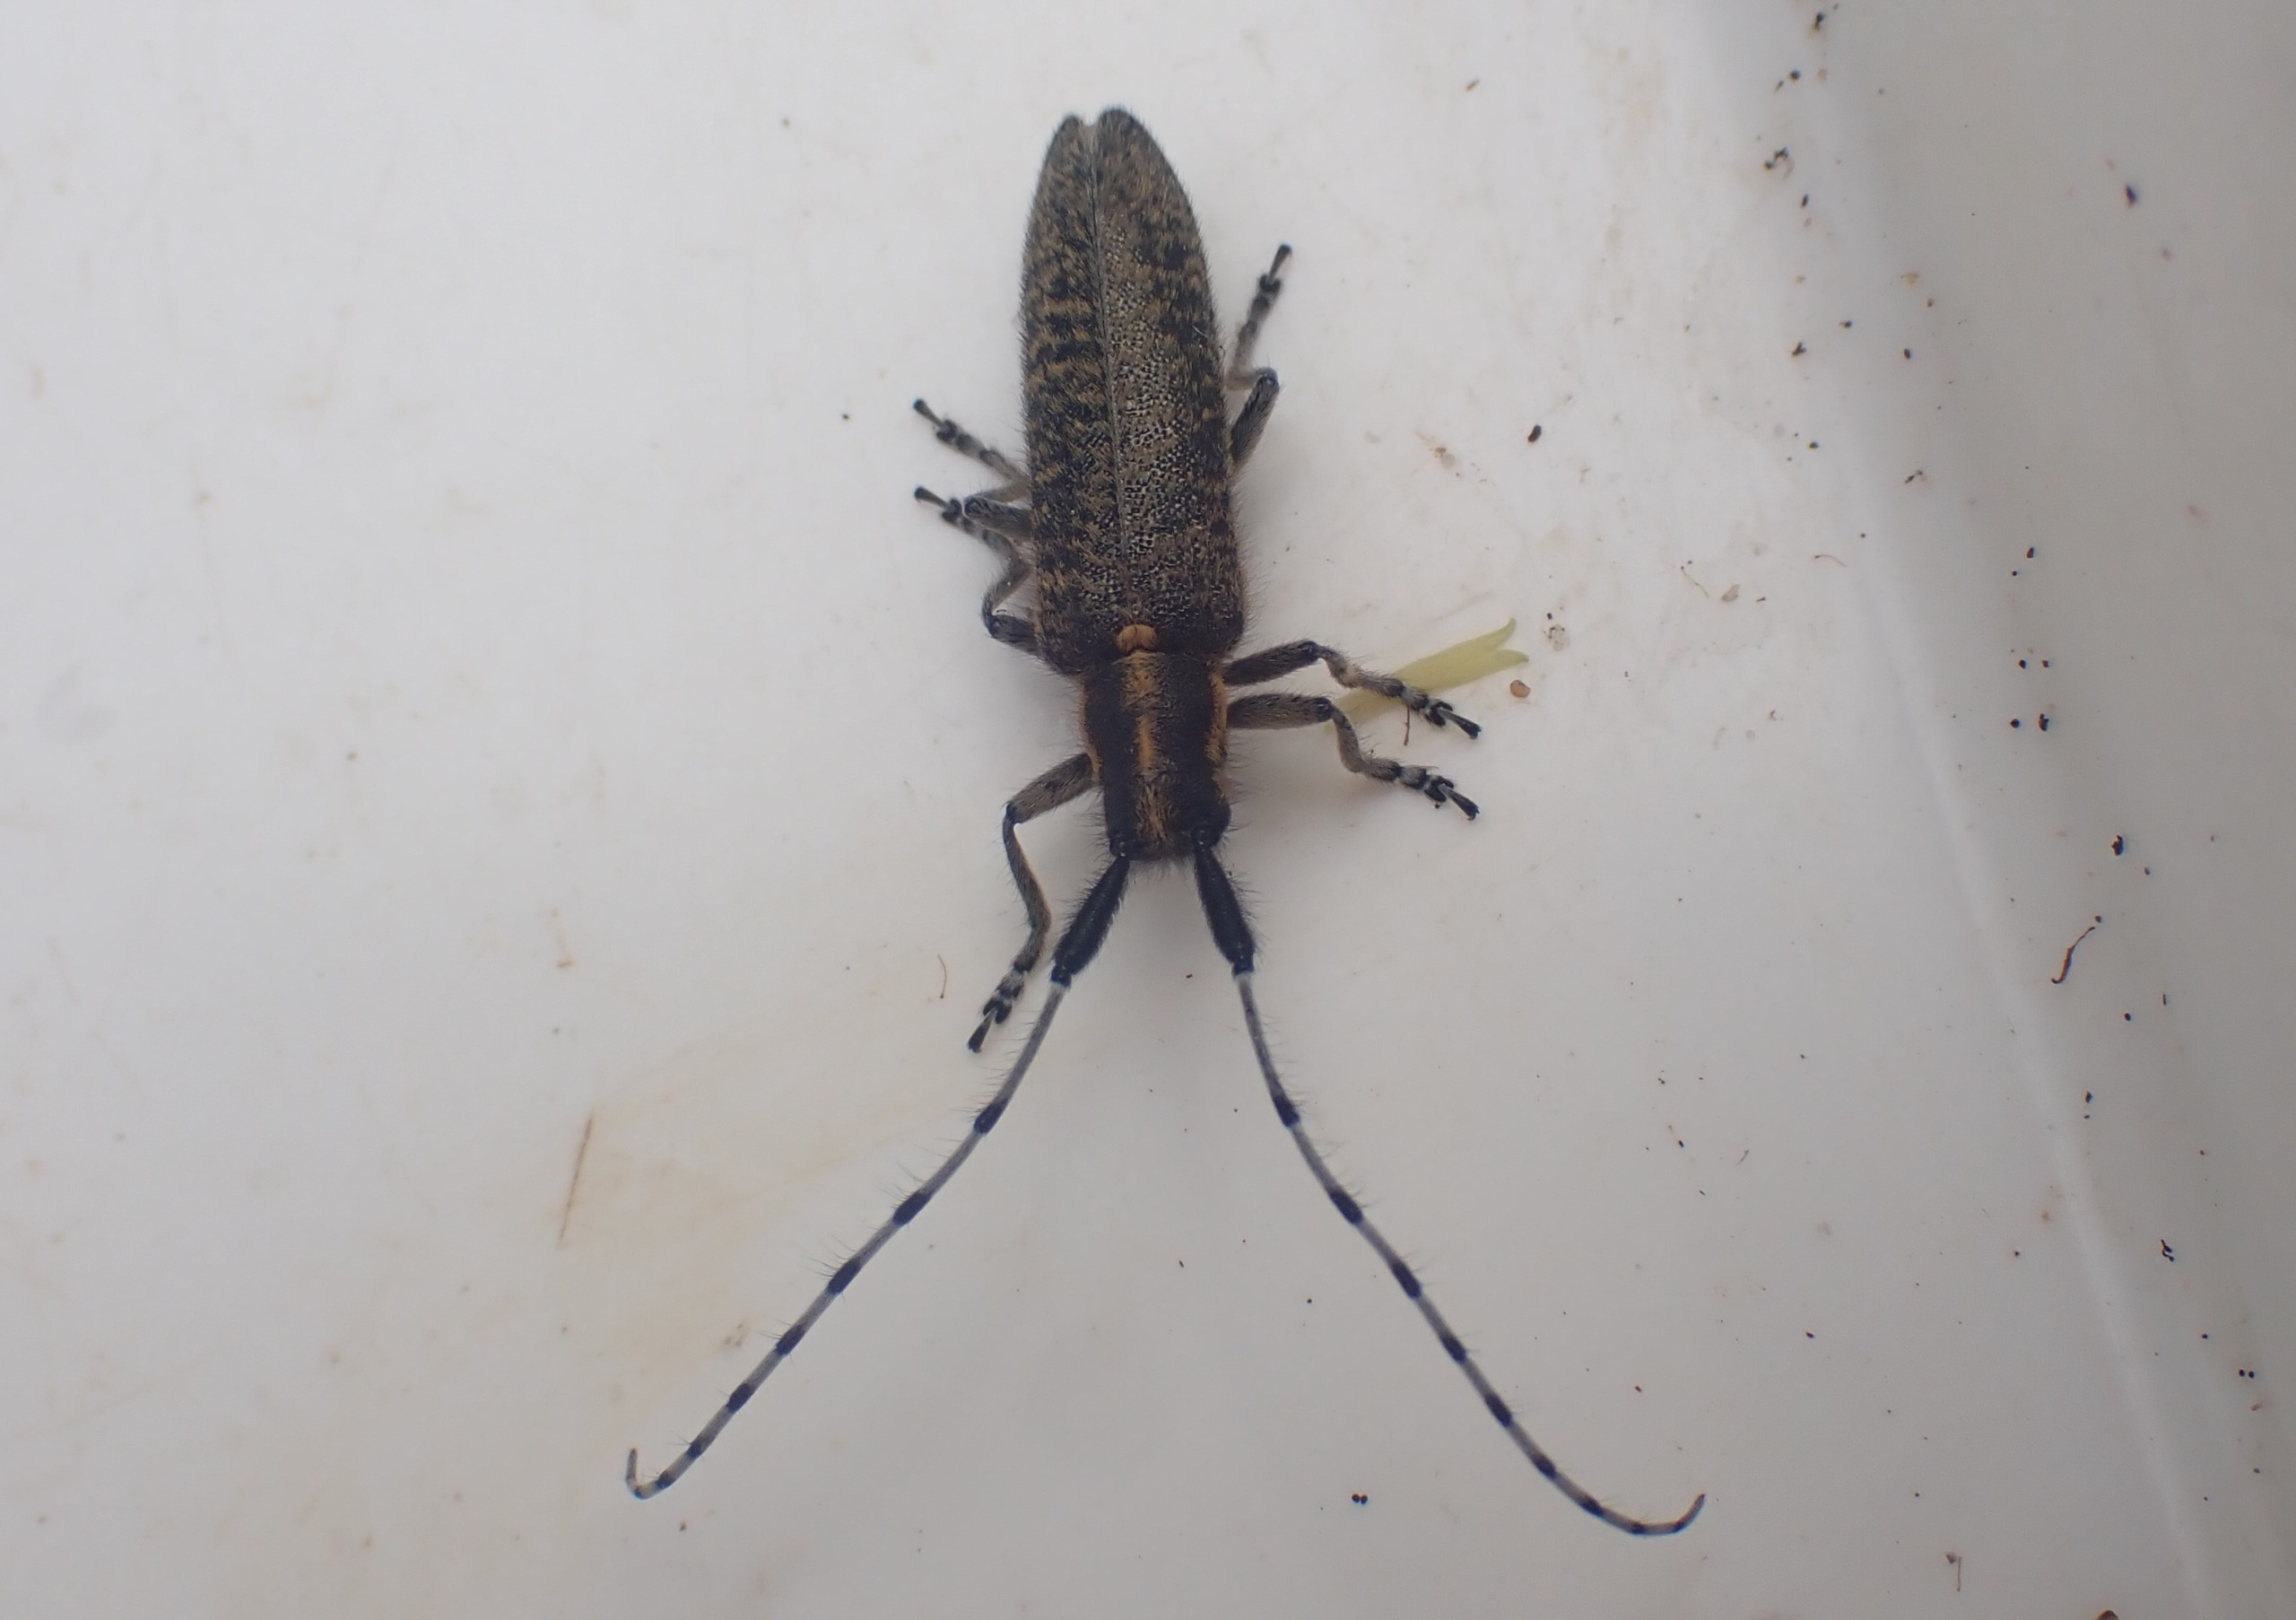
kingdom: Animalia
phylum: Arthropoda
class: Insecta
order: Coleoptera
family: Cerambycidae
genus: Agapanthia
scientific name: Agapanthia villosoviridescens
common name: Tidselbuk
